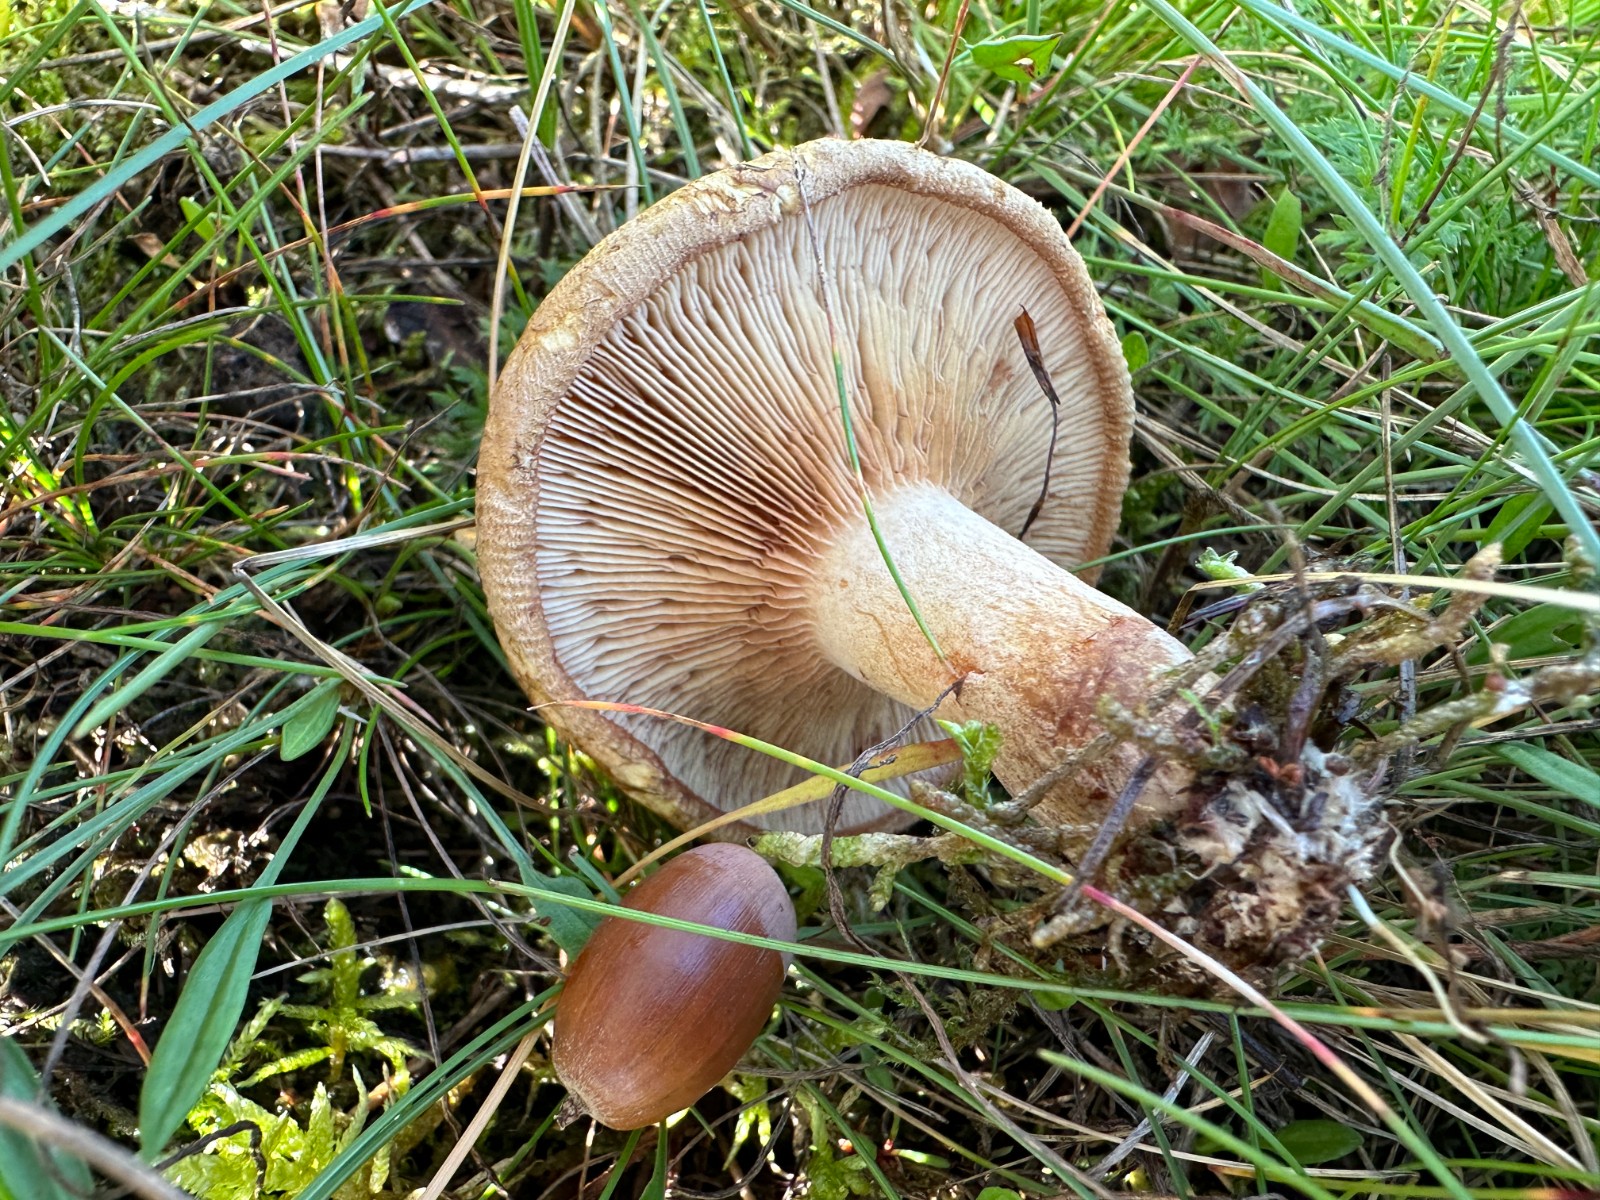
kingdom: Fungi
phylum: Basidiomycota
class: Agaricomycetes
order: Boletales
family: Paxillaceae
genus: Paxillus
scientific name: Paxillus ammoniavirescens
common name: olivensporet netbladhat
